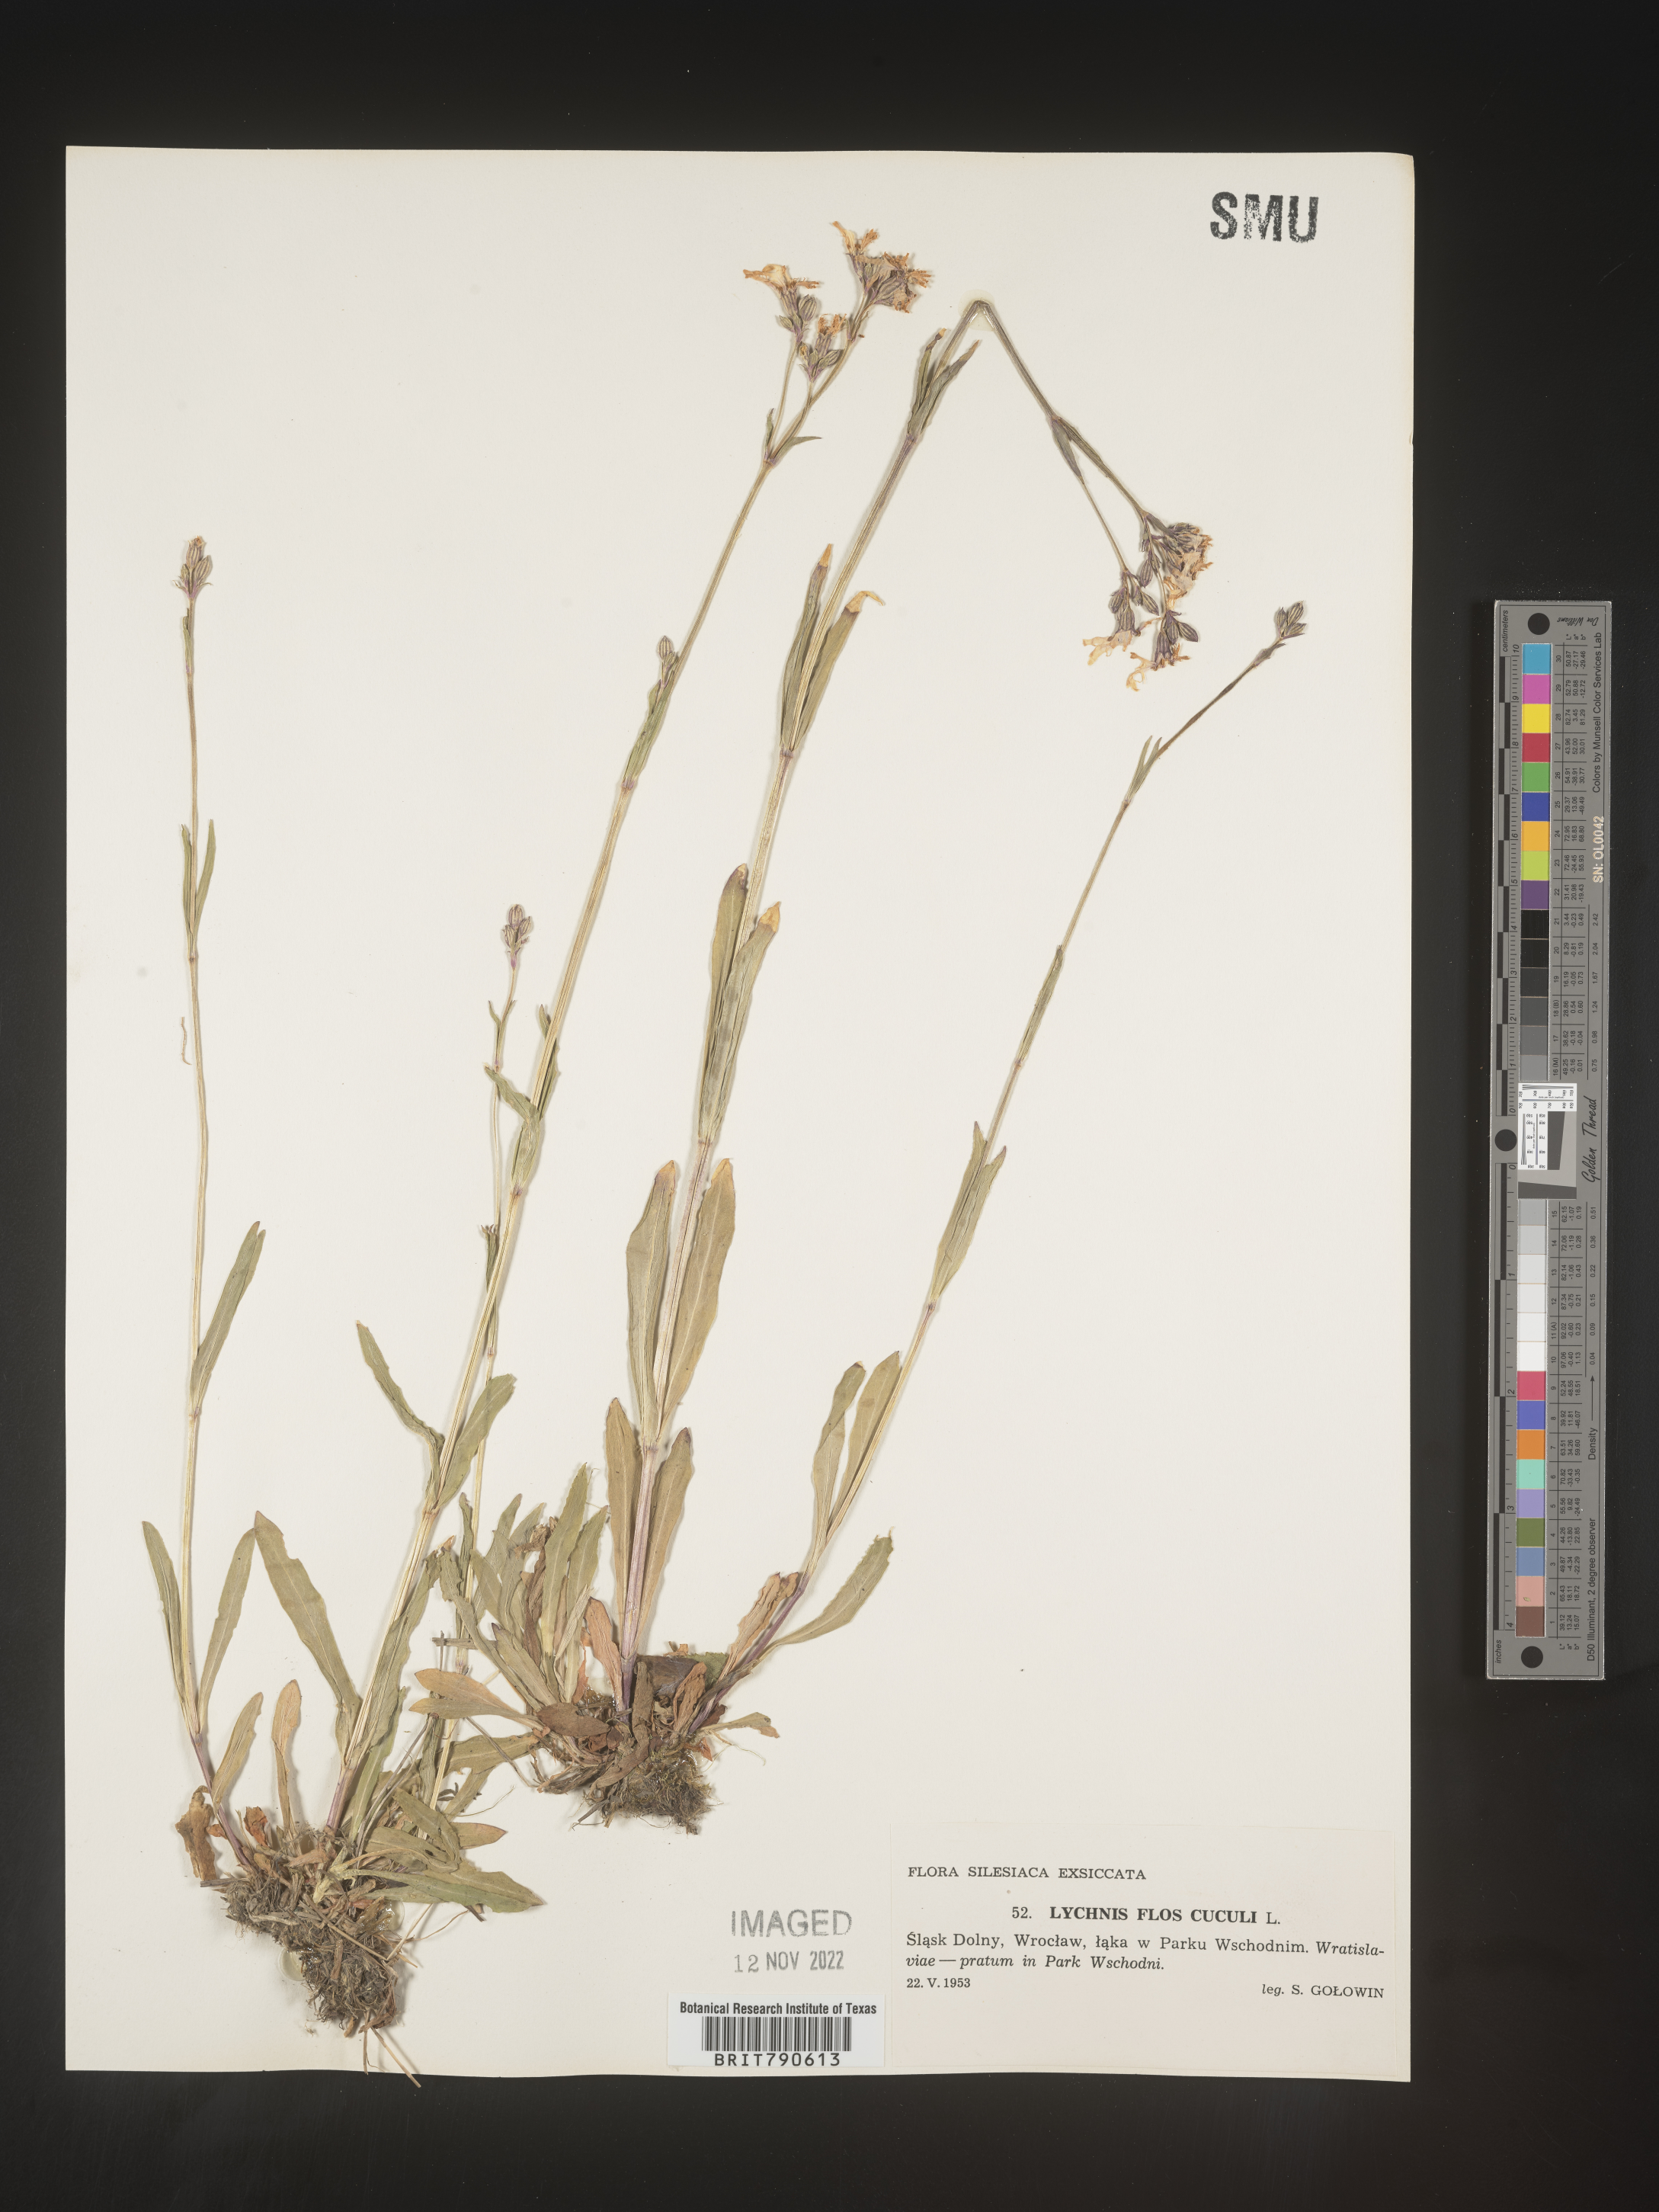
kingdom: Plantae
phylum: Tracheophyta
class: Magnoliopsida
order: Caryophyllales
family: Caryophyllaceae
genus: Silene
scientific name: Silene
